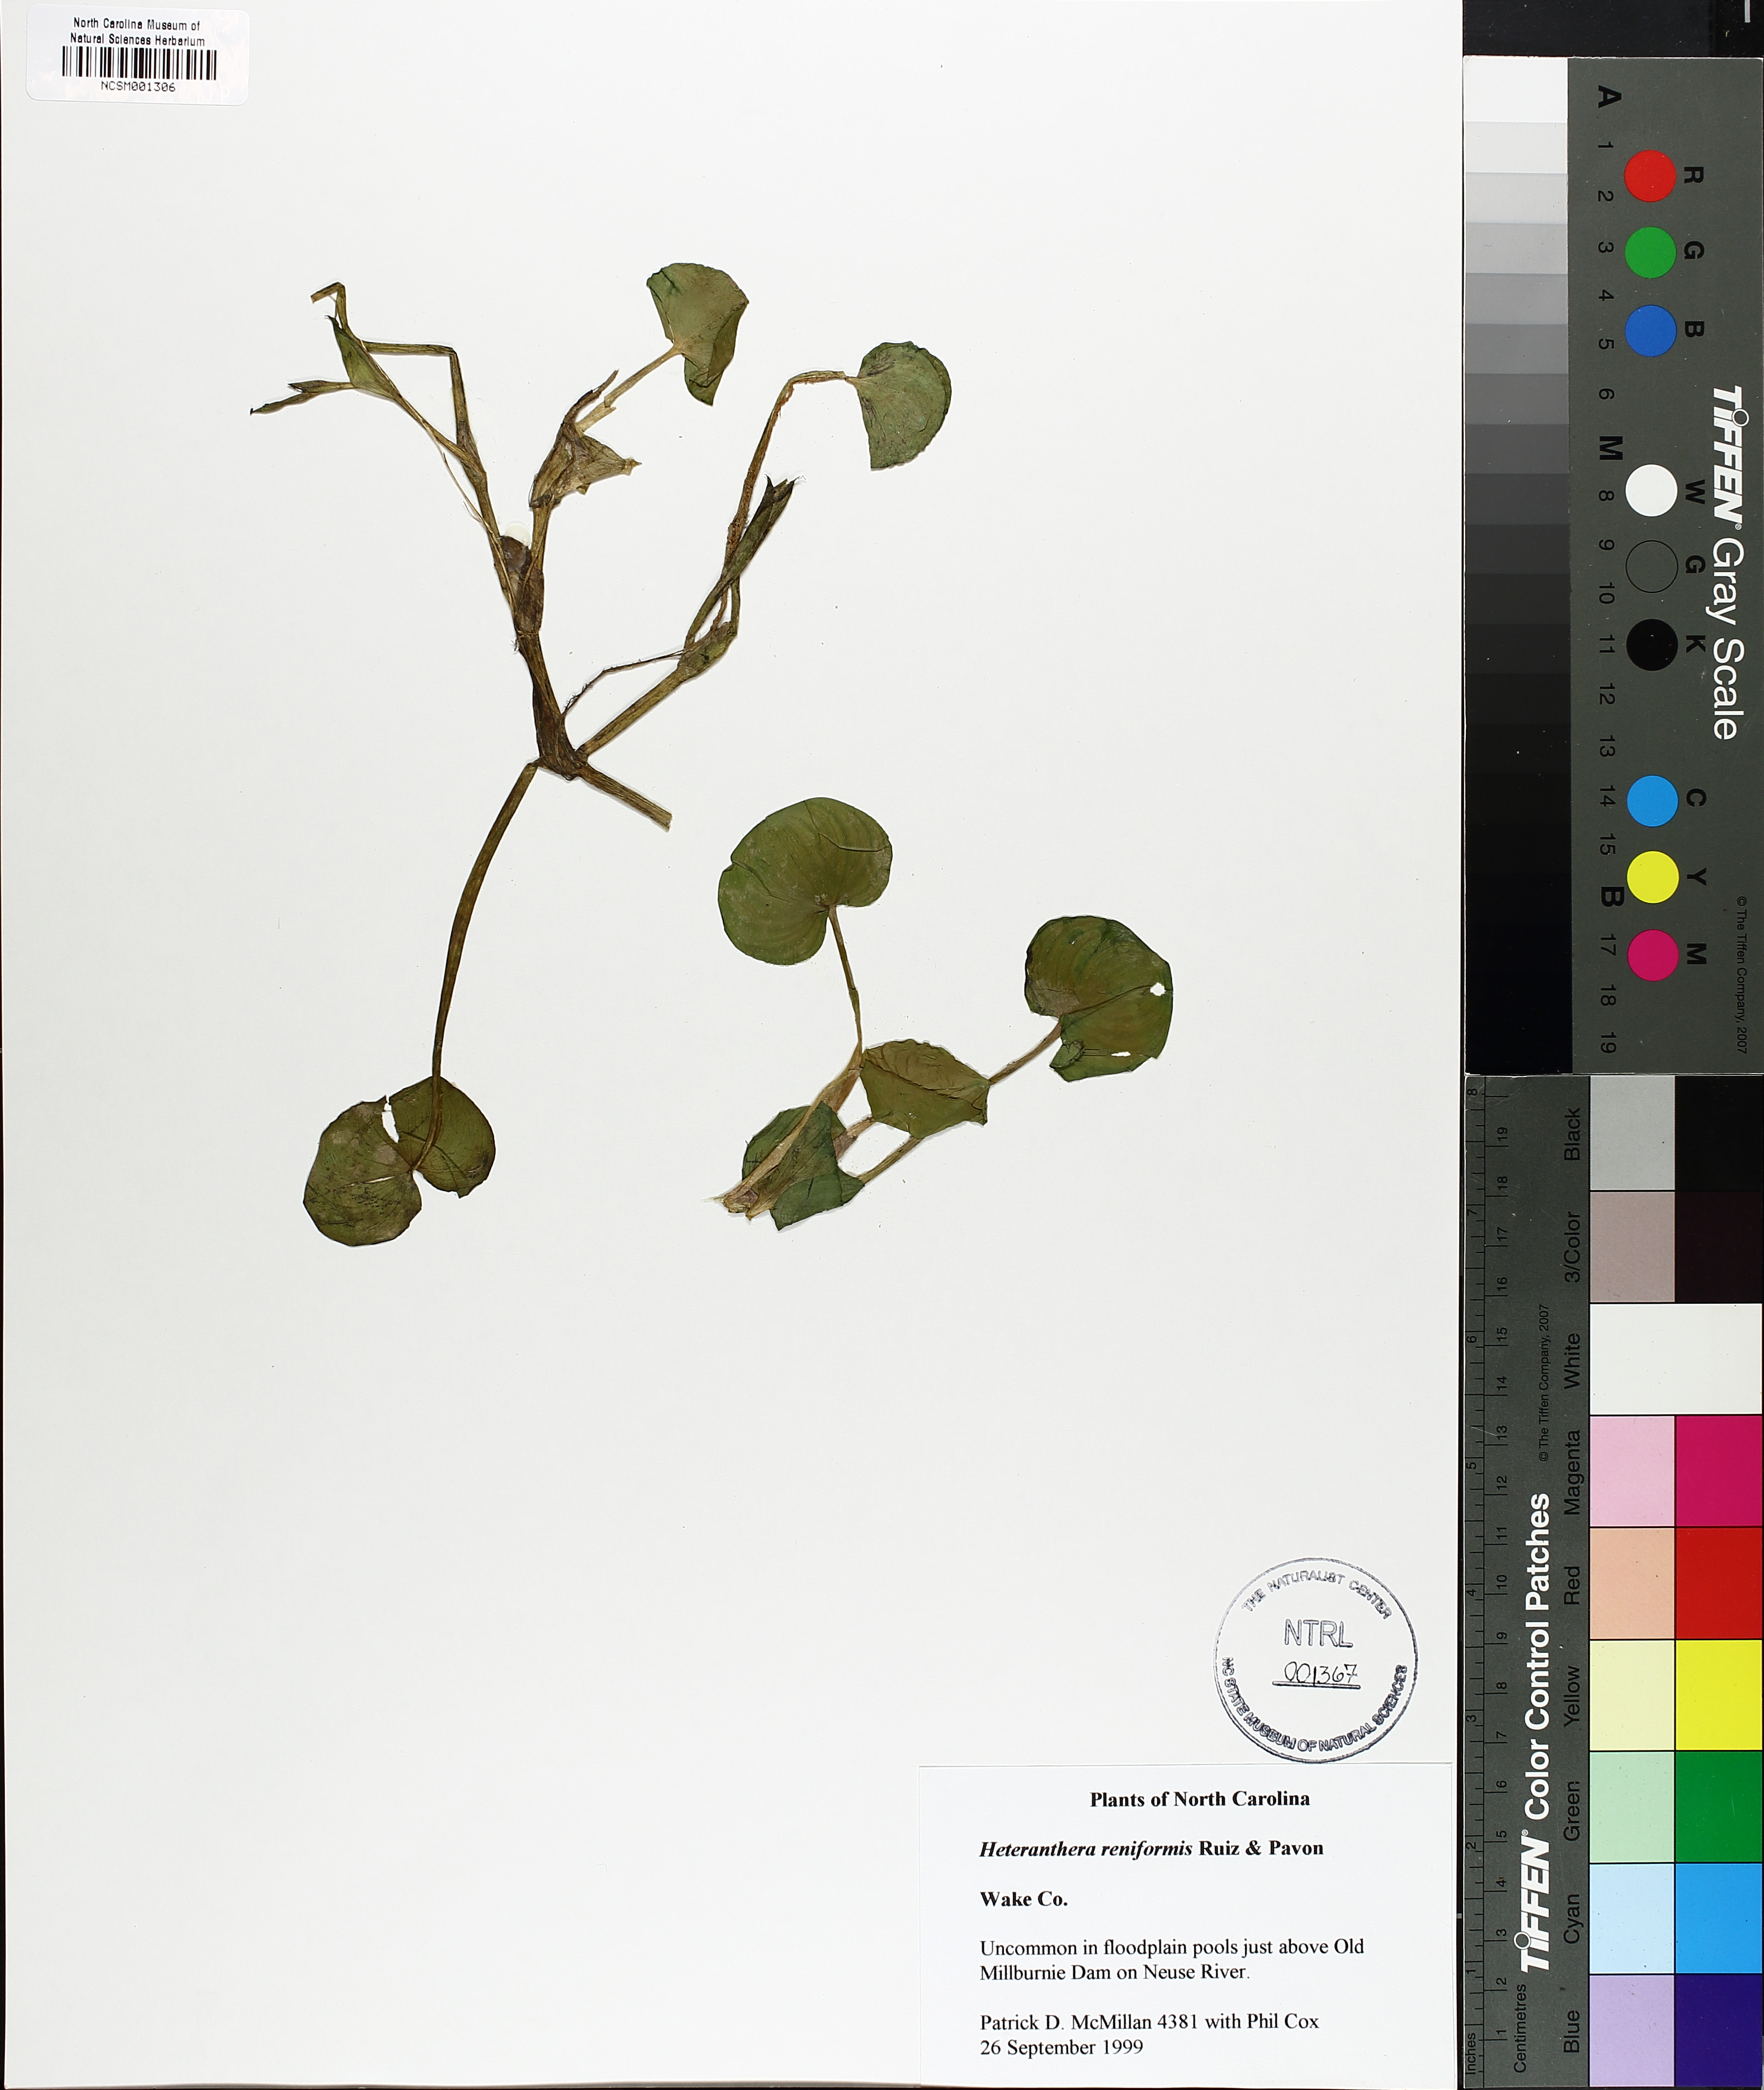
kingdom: Plantae
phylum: Tracheophyta
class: Liliopsida
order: Commelinales
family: Pontederiaceae
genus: Heteranthera
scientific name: Heteranthera reniformis
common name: Kidneyleaf mudplantain
